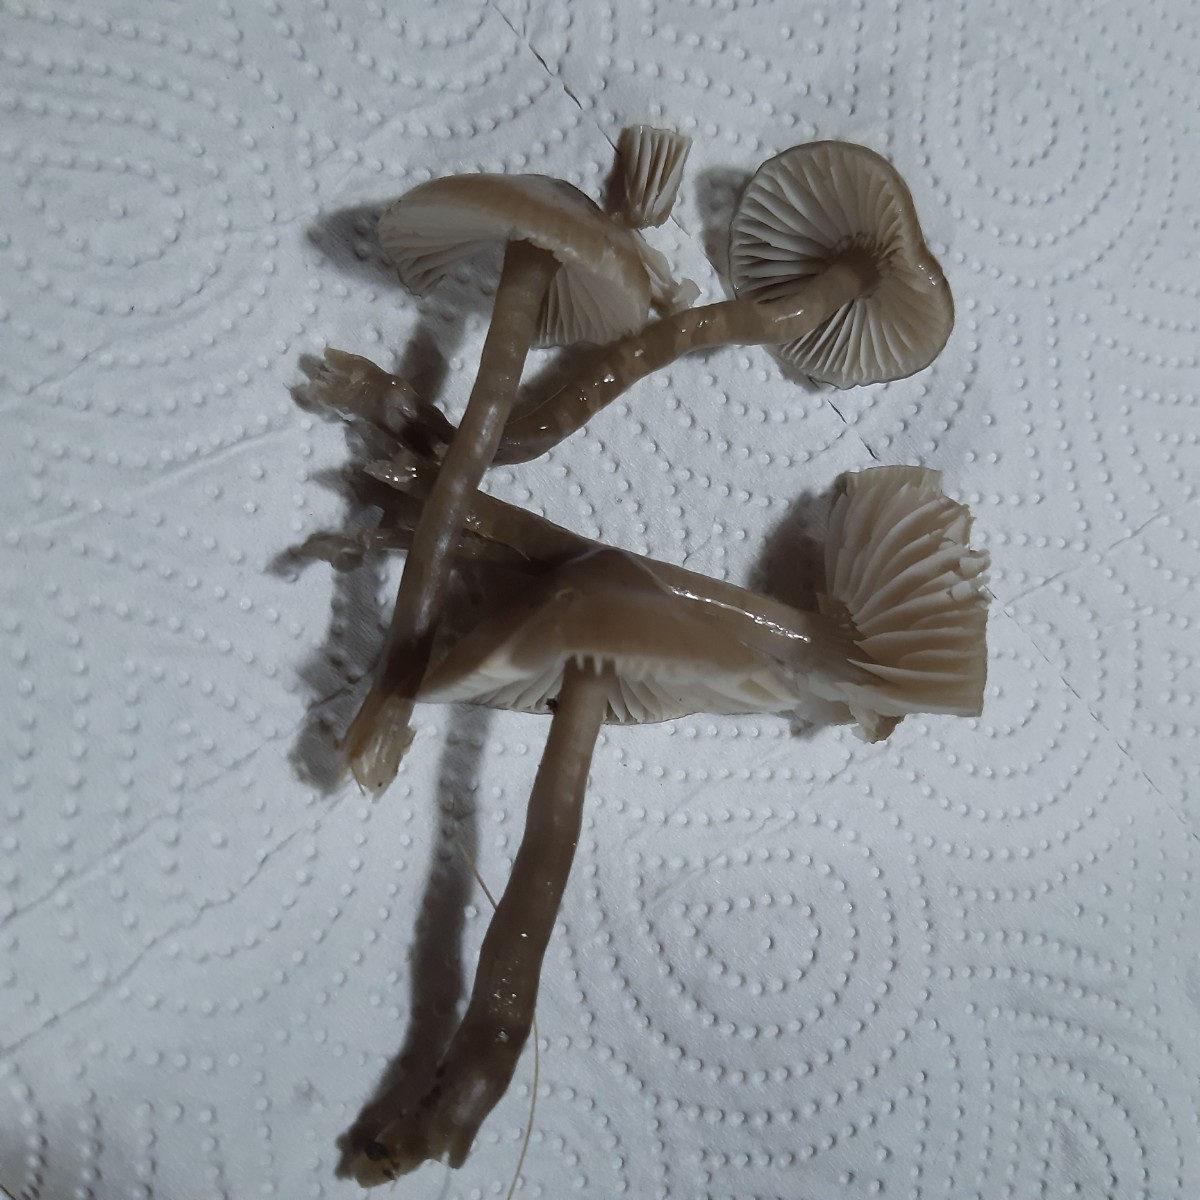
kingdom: Fungi
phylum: Basidiomycota
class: Agaricomycetes
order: Agaricales
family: Hygrophoraceae
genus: Gliophorus
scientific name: Gliophorus irrigatus
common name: slimet vokshat
